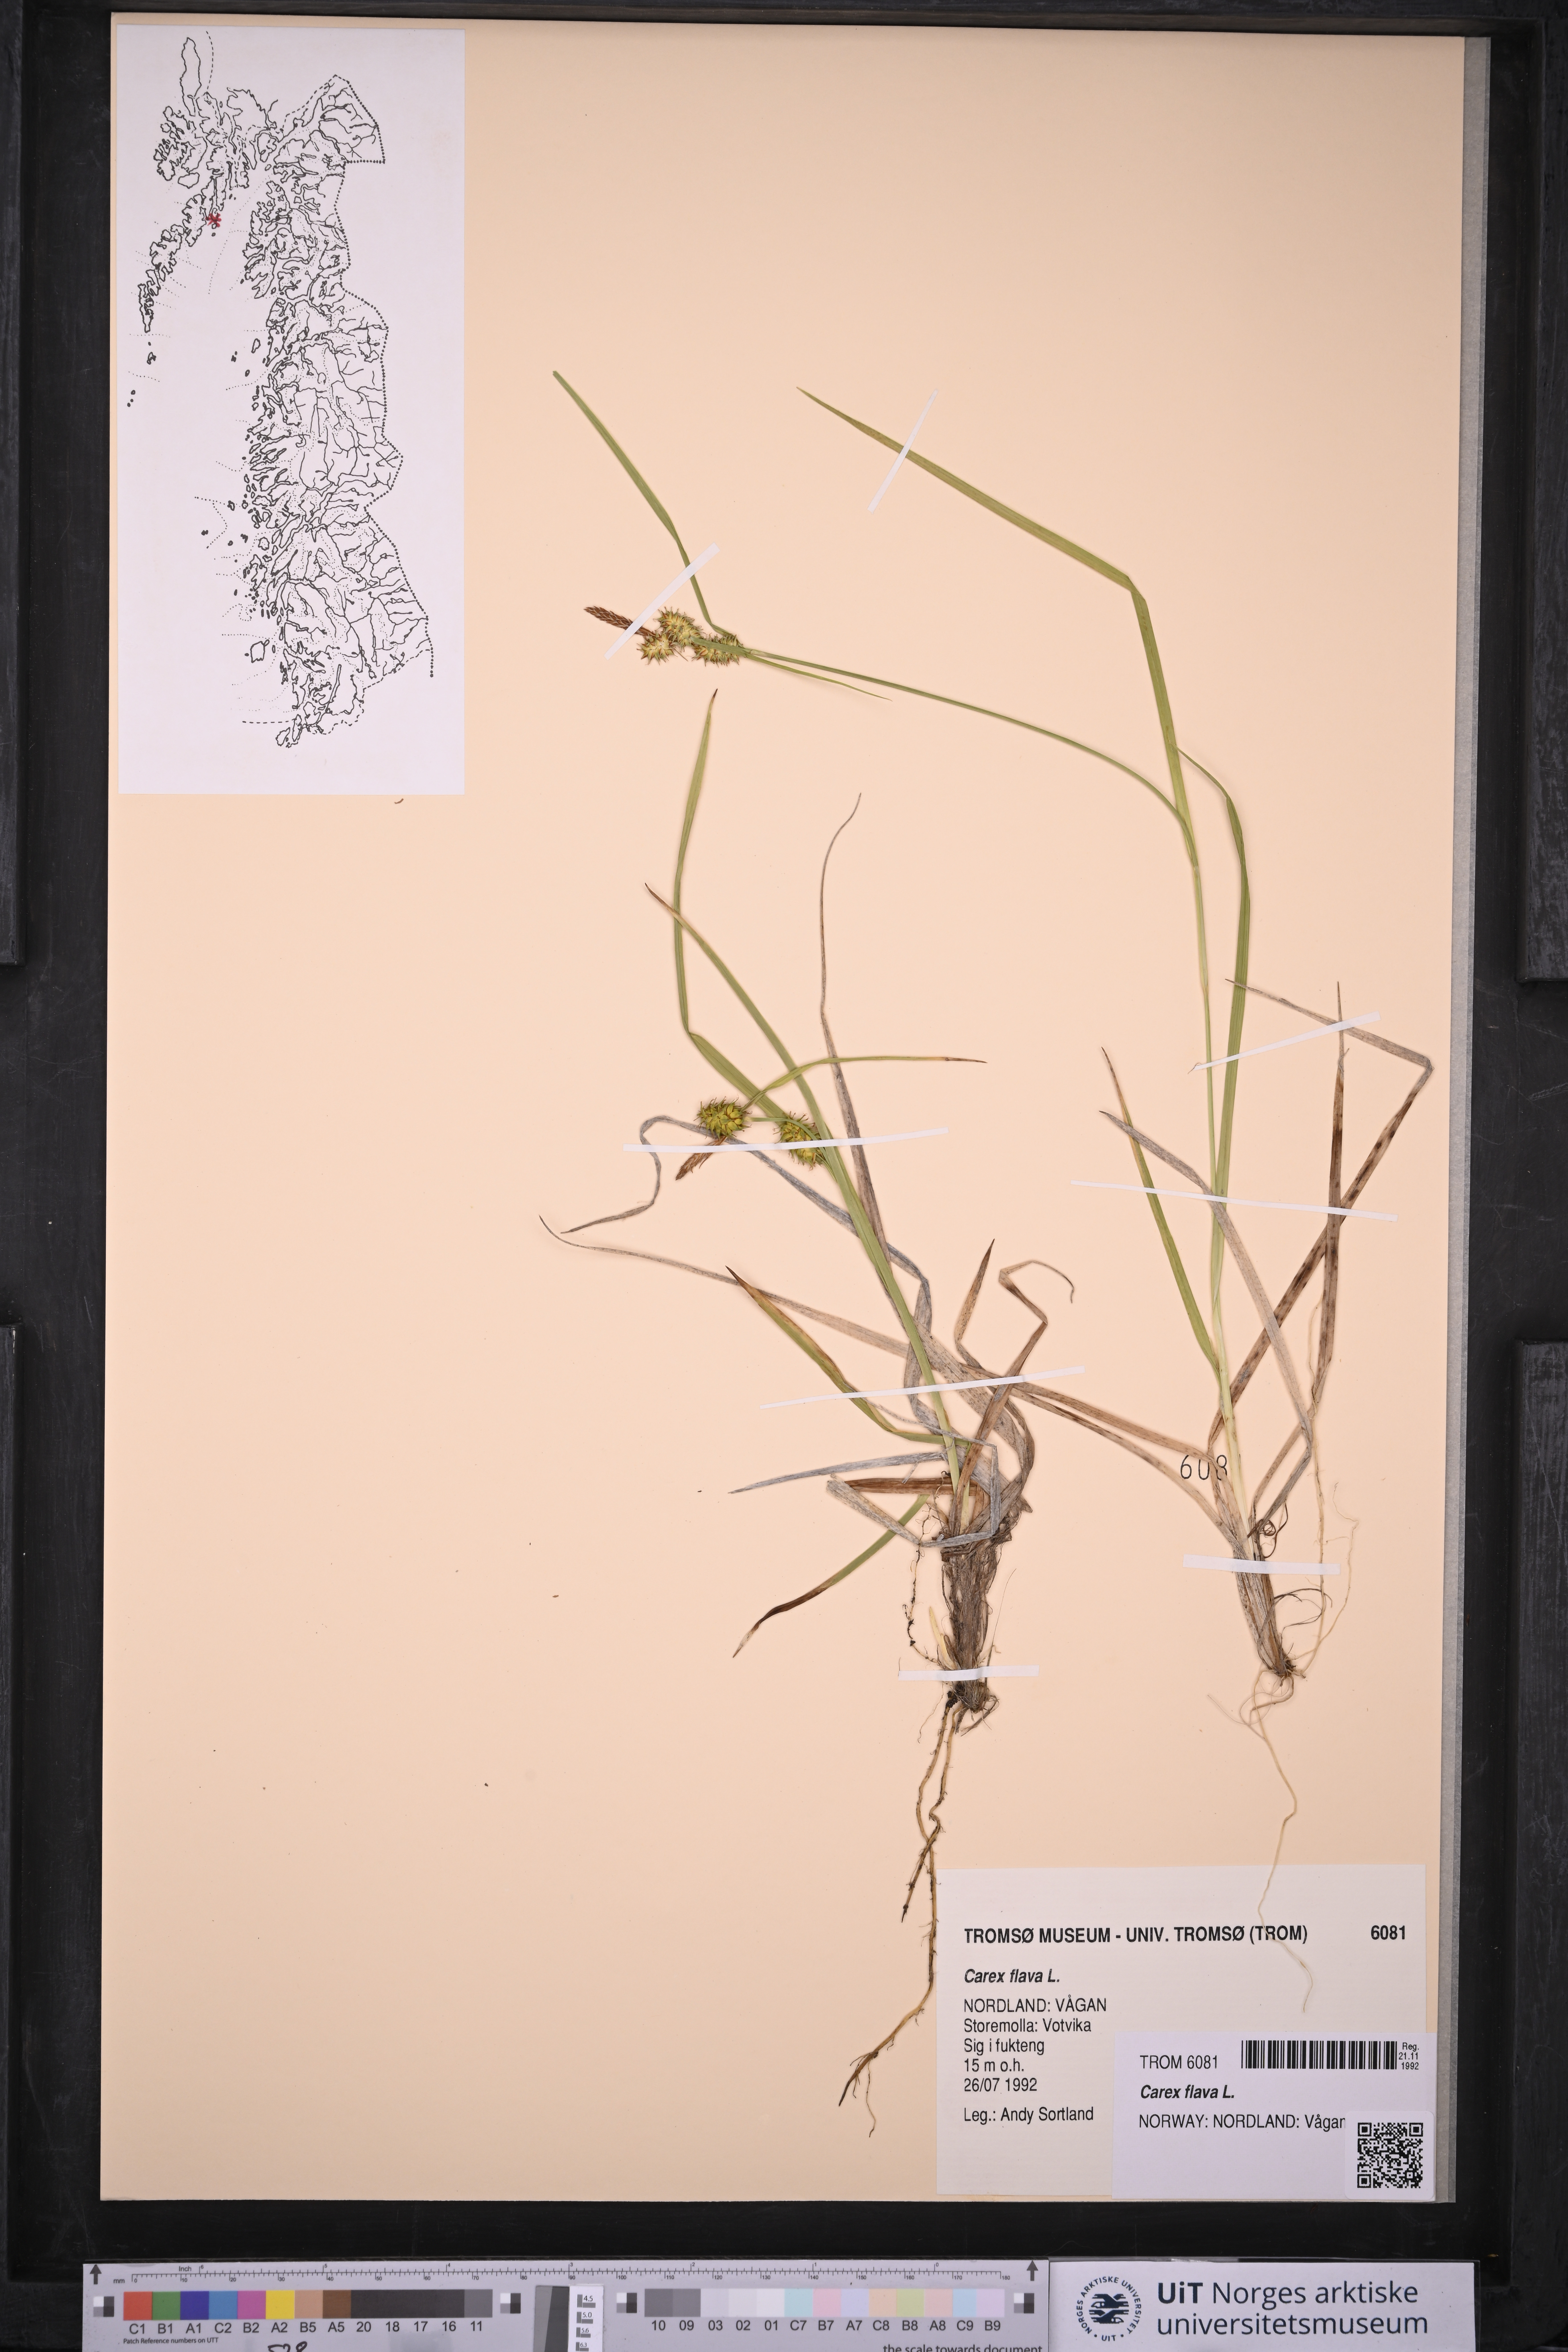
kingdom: Plantae
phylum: Tracheophyta
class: Liliopsida
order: Poales
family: Cyperaceae
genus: Carex
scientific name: Carex flava
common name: Large yellow-sedge
